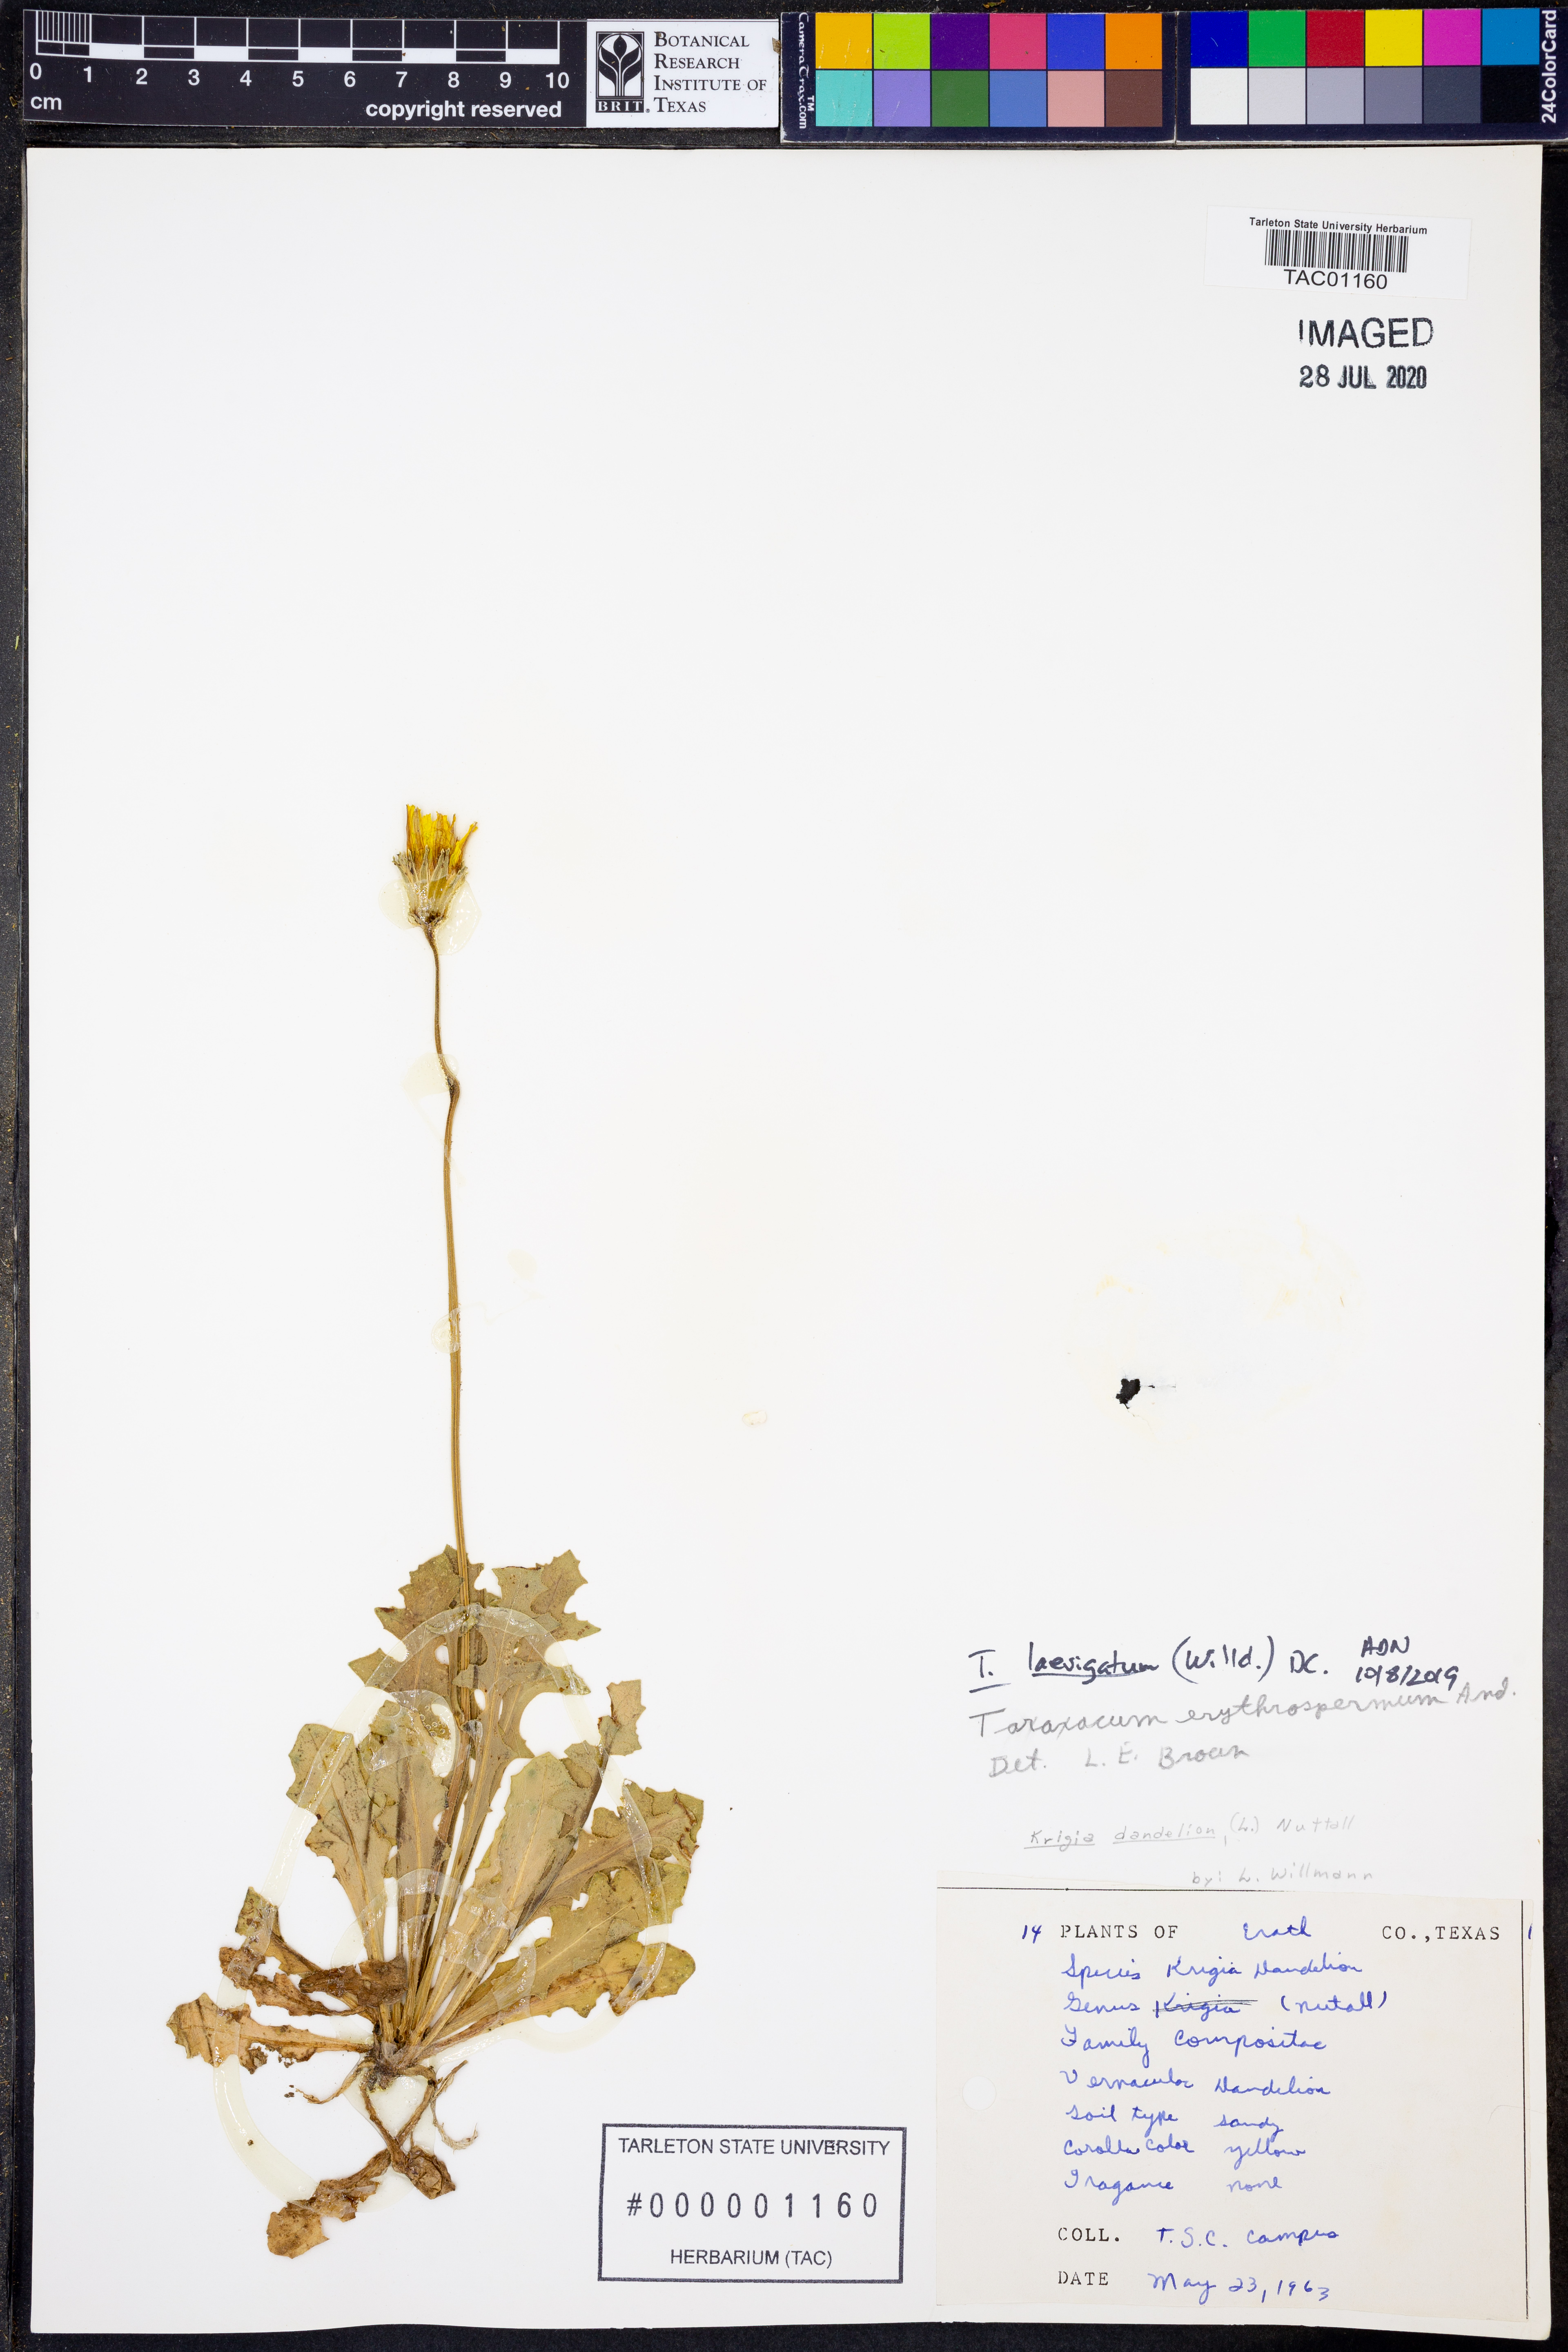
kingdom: Plantae
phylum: Tracheophyta
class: Magnoliopsida
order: Asterales
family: Asteraceae
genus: Taraxacum
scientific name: Taraxacum erythrospermum
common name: Rock dandelion
